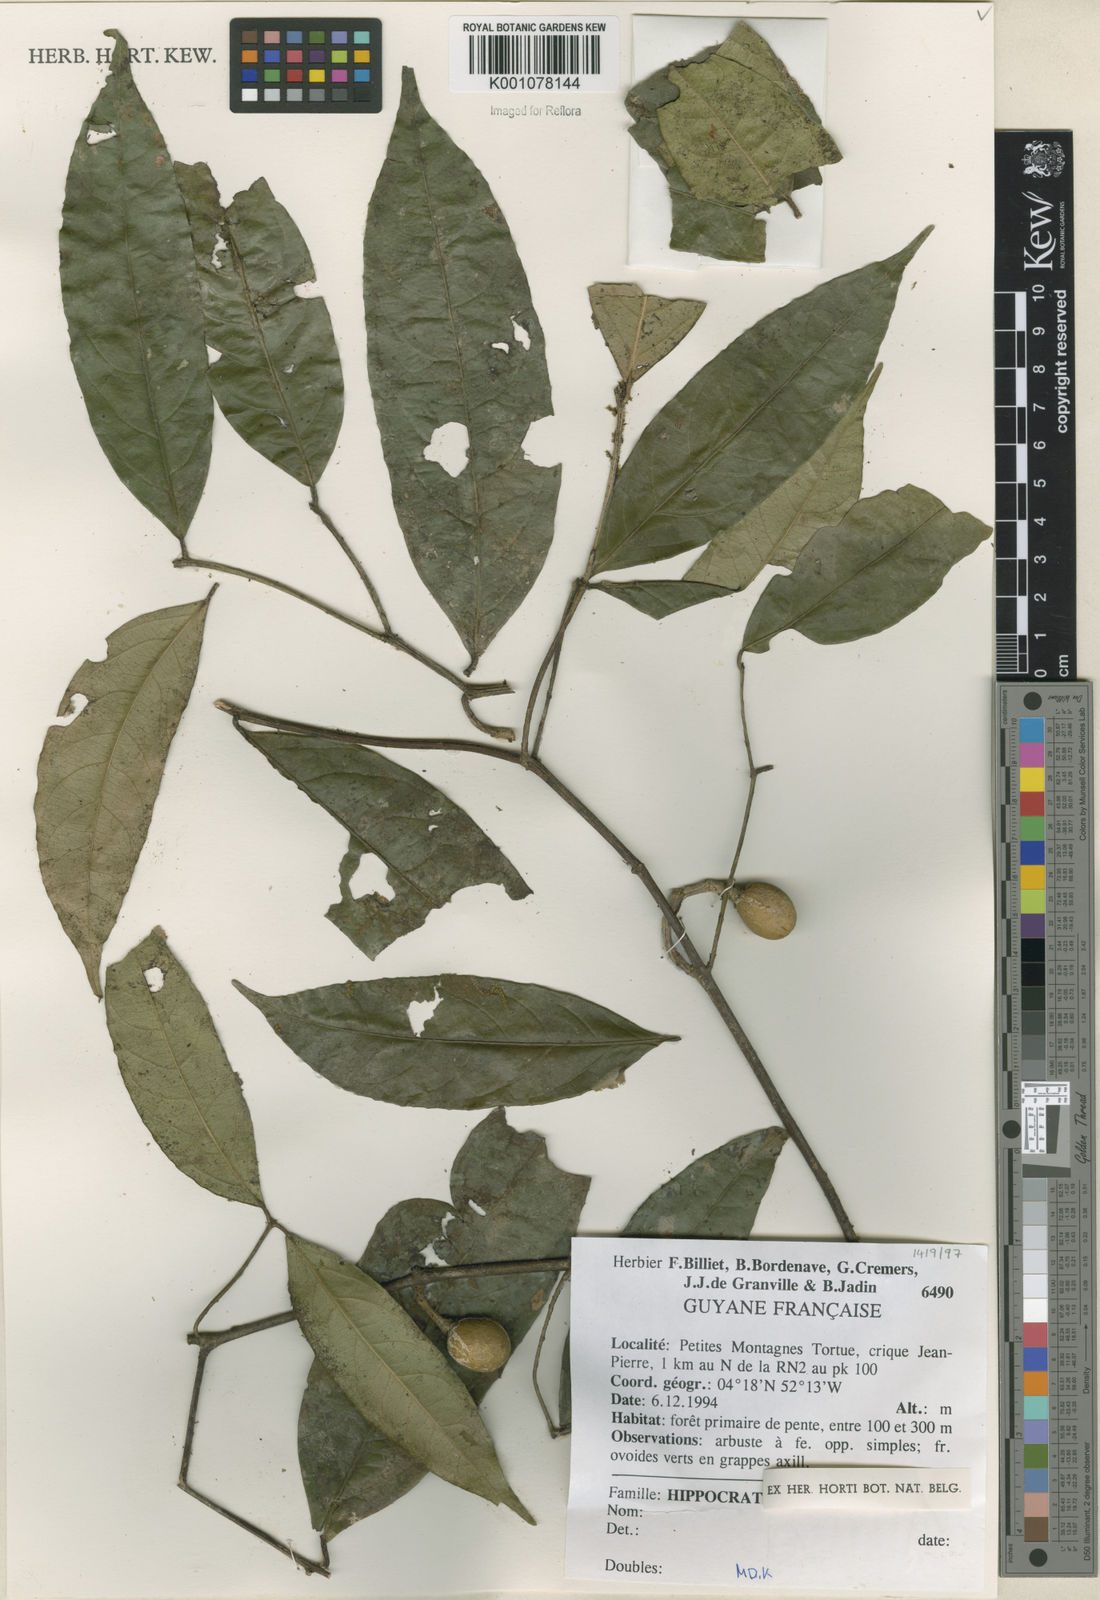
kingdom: Plantae
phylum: Tracheophyta
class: Magnoliopsida
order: Celastrales
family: Celastraceae
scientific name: Celastraceae
